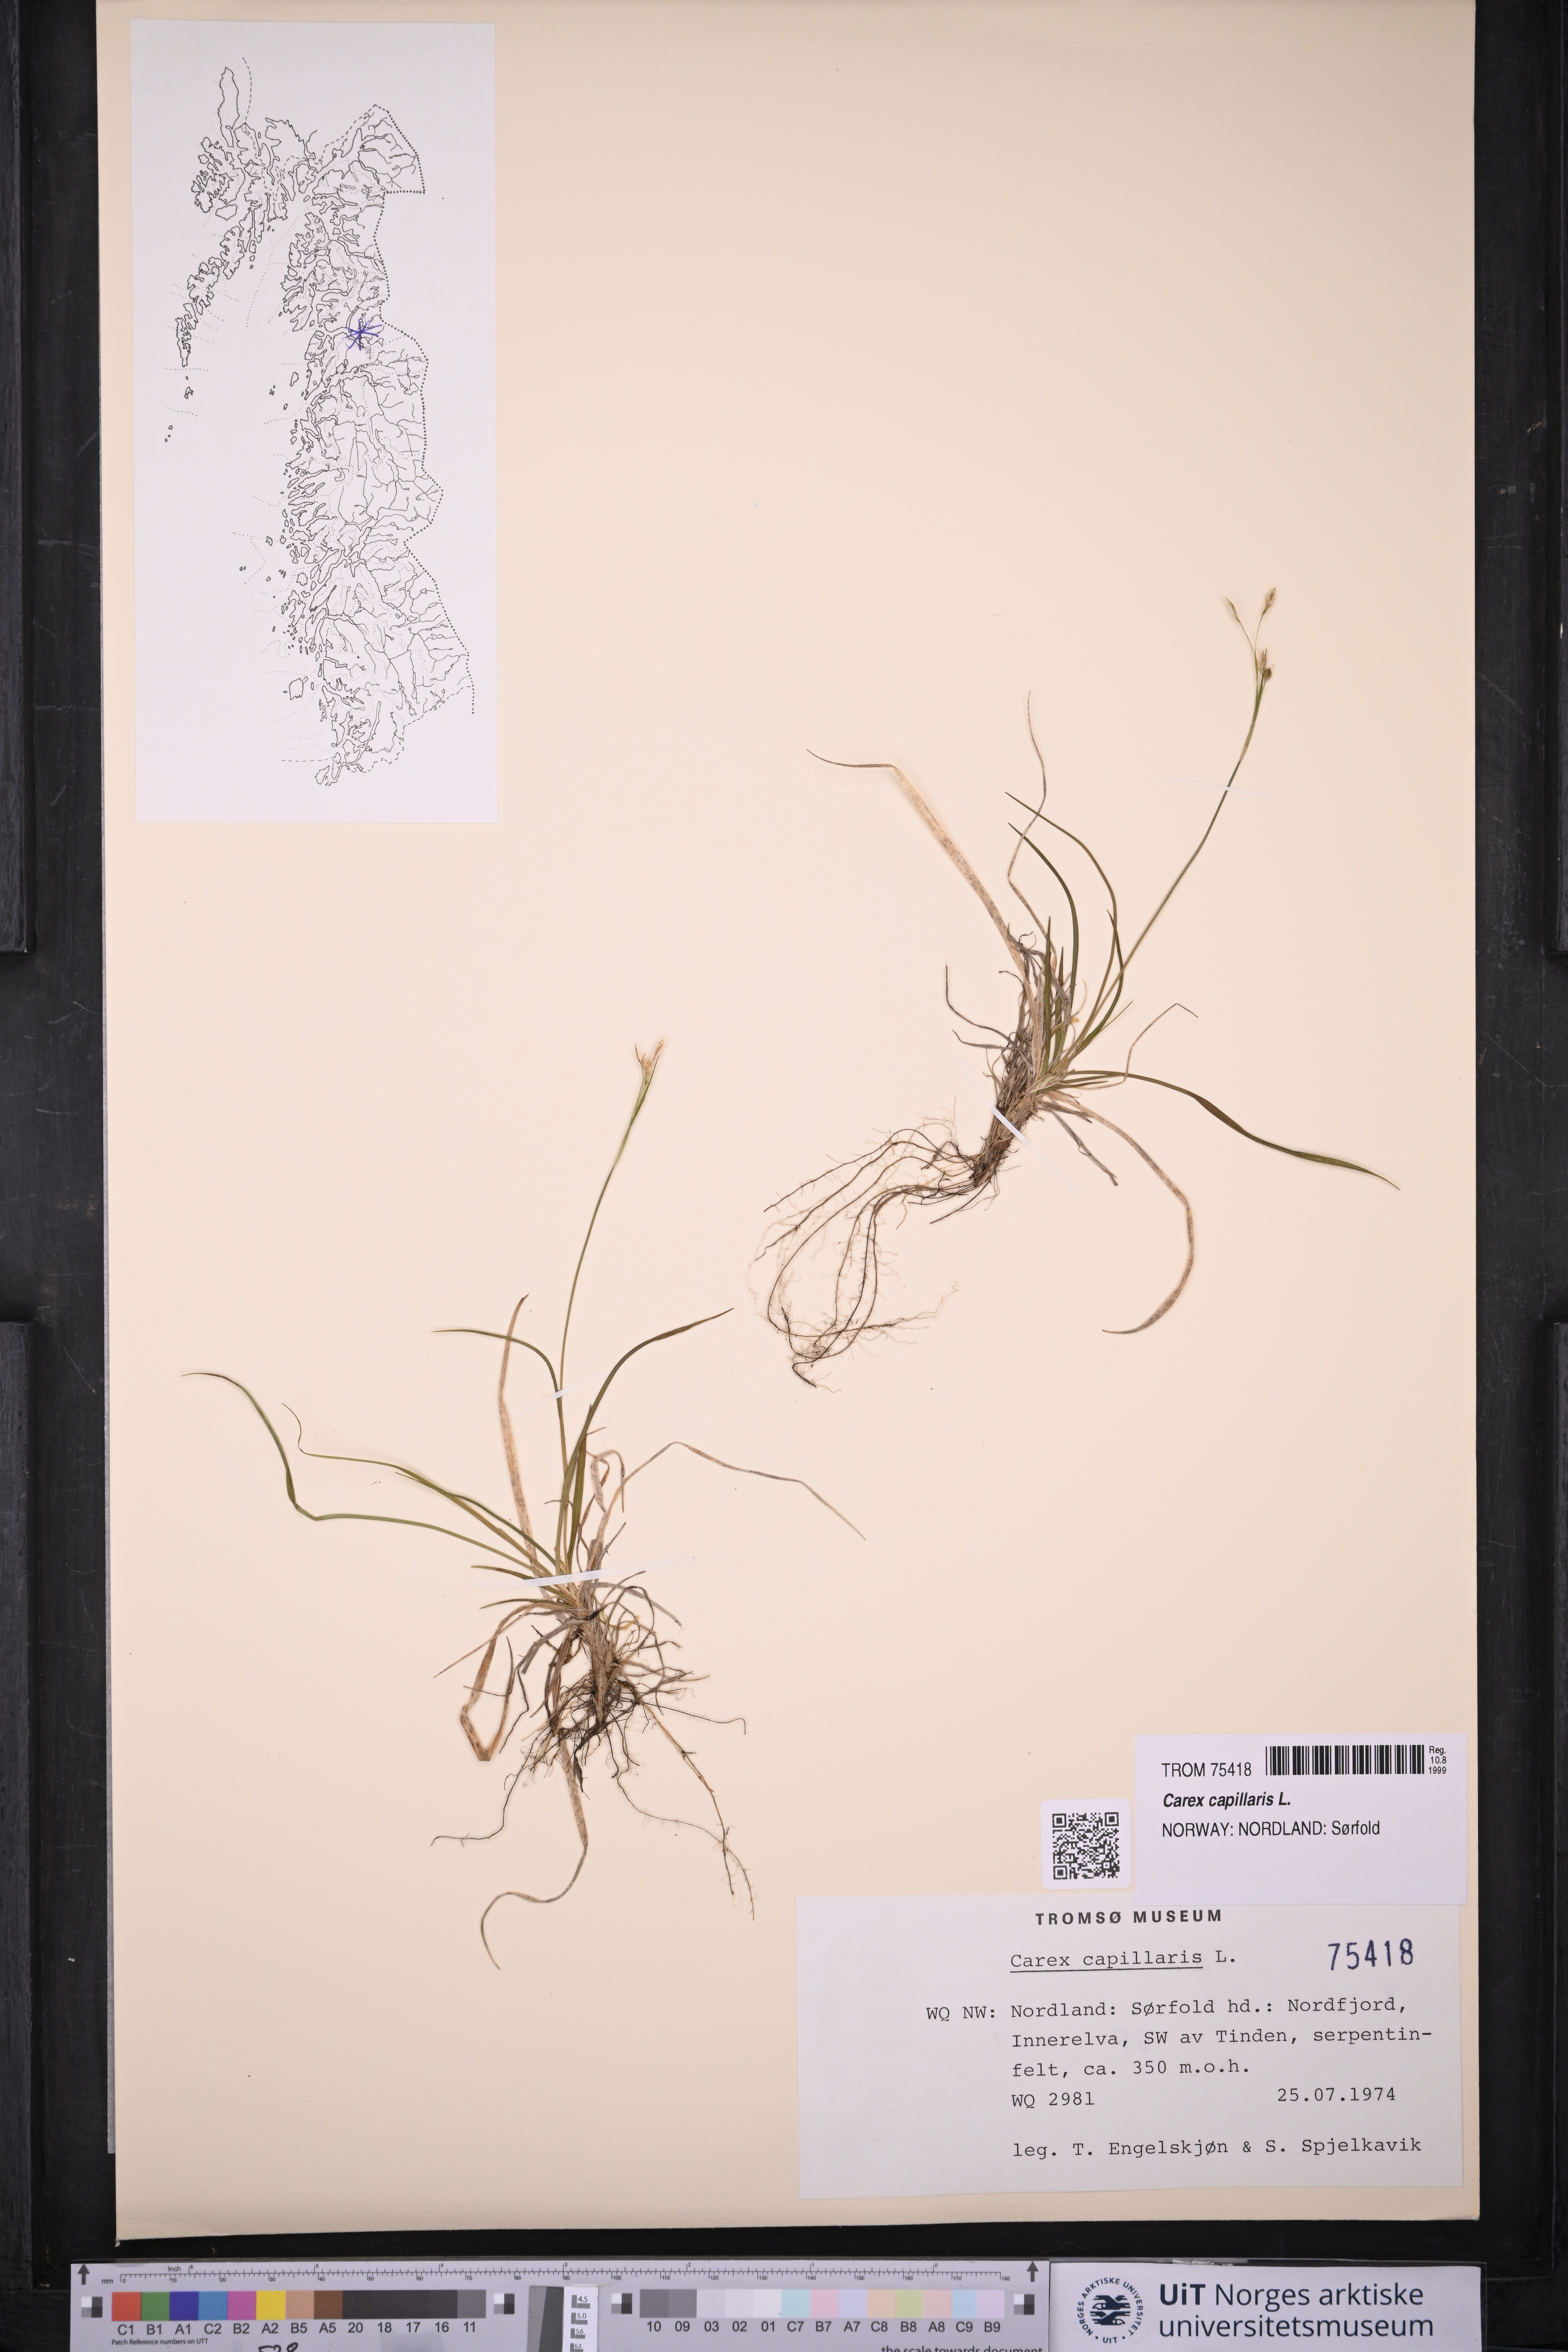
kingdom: Plantae
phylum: Tracheophyta
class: Liliopsida
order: Poales
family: Cyperaceae
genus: Carex
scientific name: Carex capillaris
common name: Hair sedge
